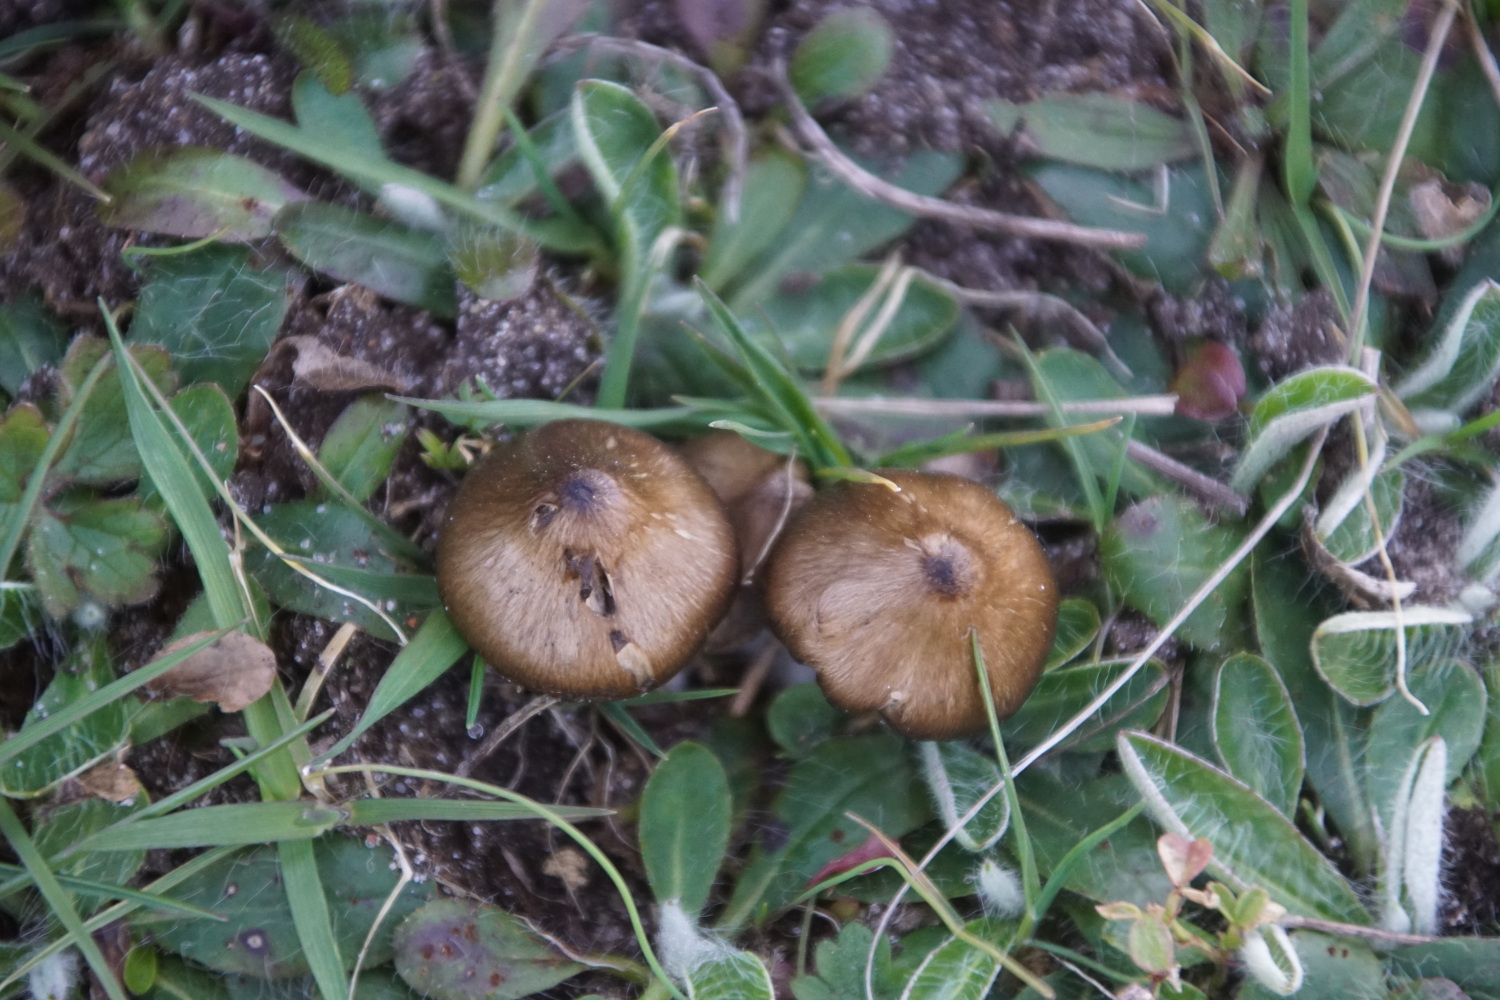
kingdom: Fungi
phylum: Basidiomycota
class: Agaricomycetes
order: Agaricales
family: Entolomataceae
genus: Entoloma
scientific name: Entoloma vernum
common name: vår-rødblad
